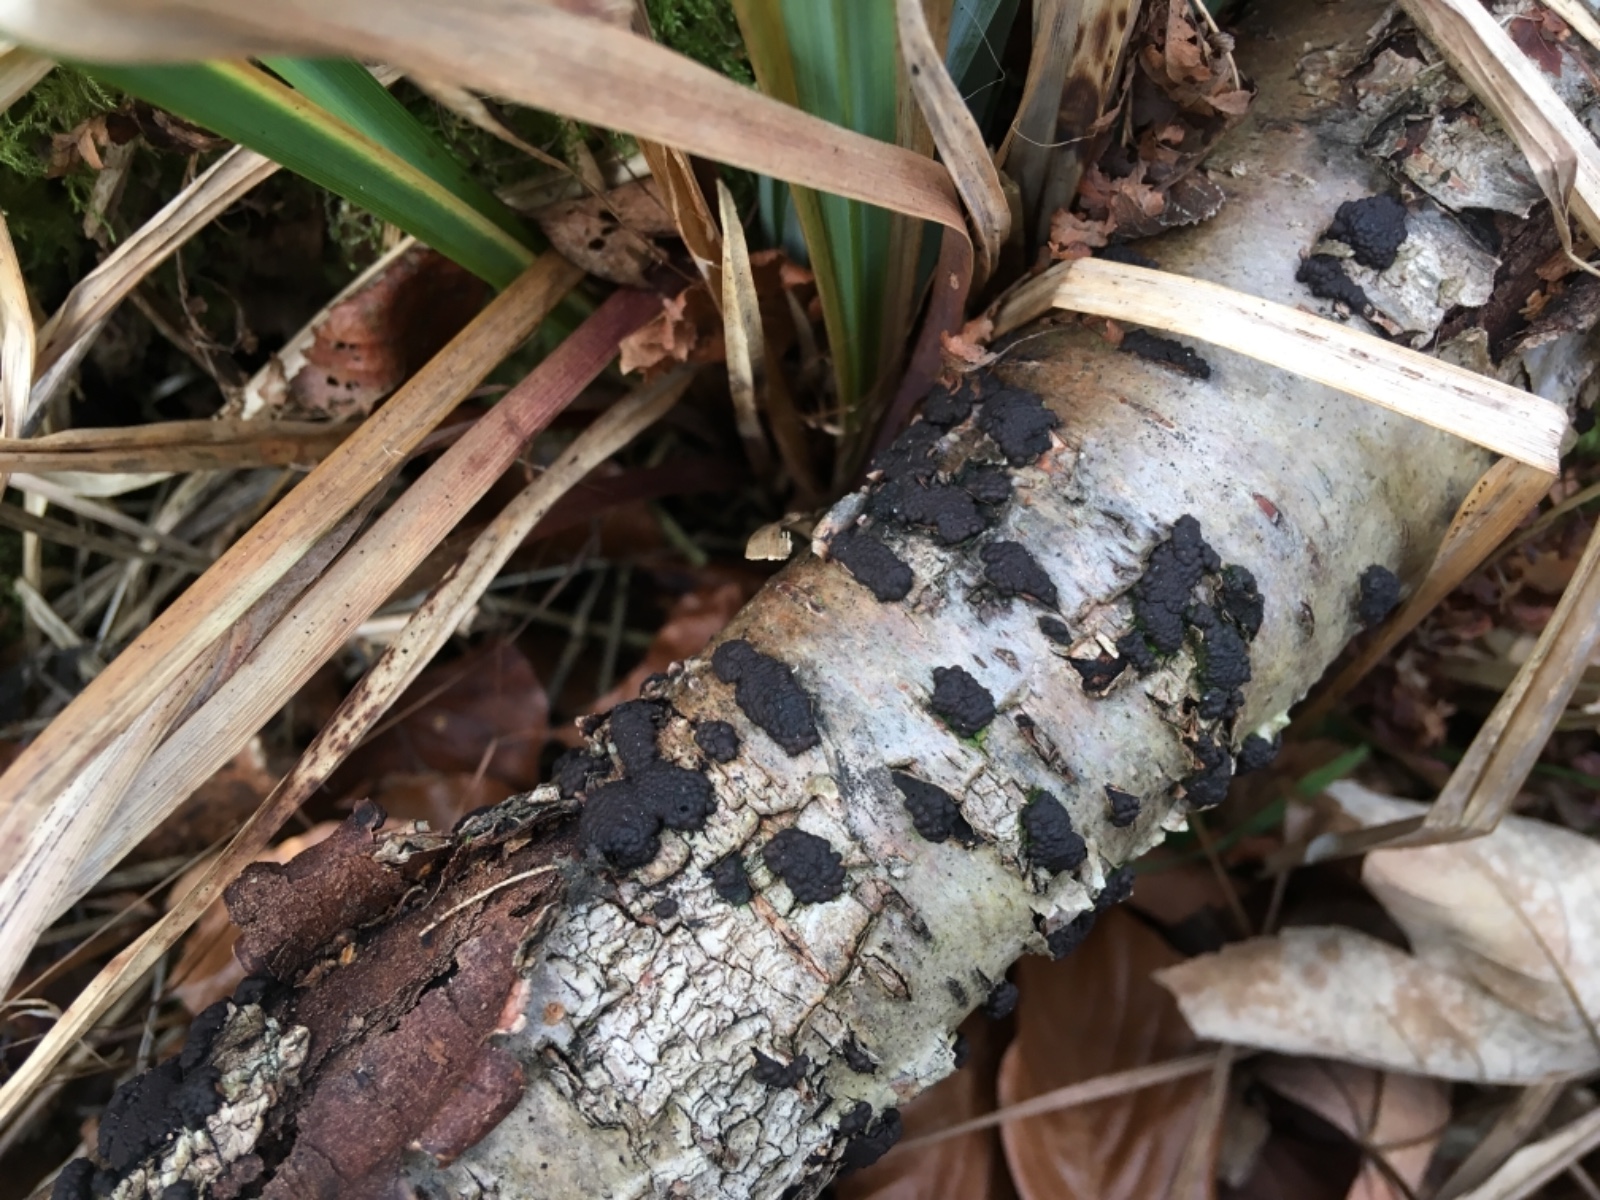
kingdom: Fungi
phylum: Ascomycota
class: Sordariomycetes
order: Xylariales
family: Hypoxylaceae
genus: Jackrogersella
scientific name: Jackrogersella multiformis
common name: foranderlig kulbær
